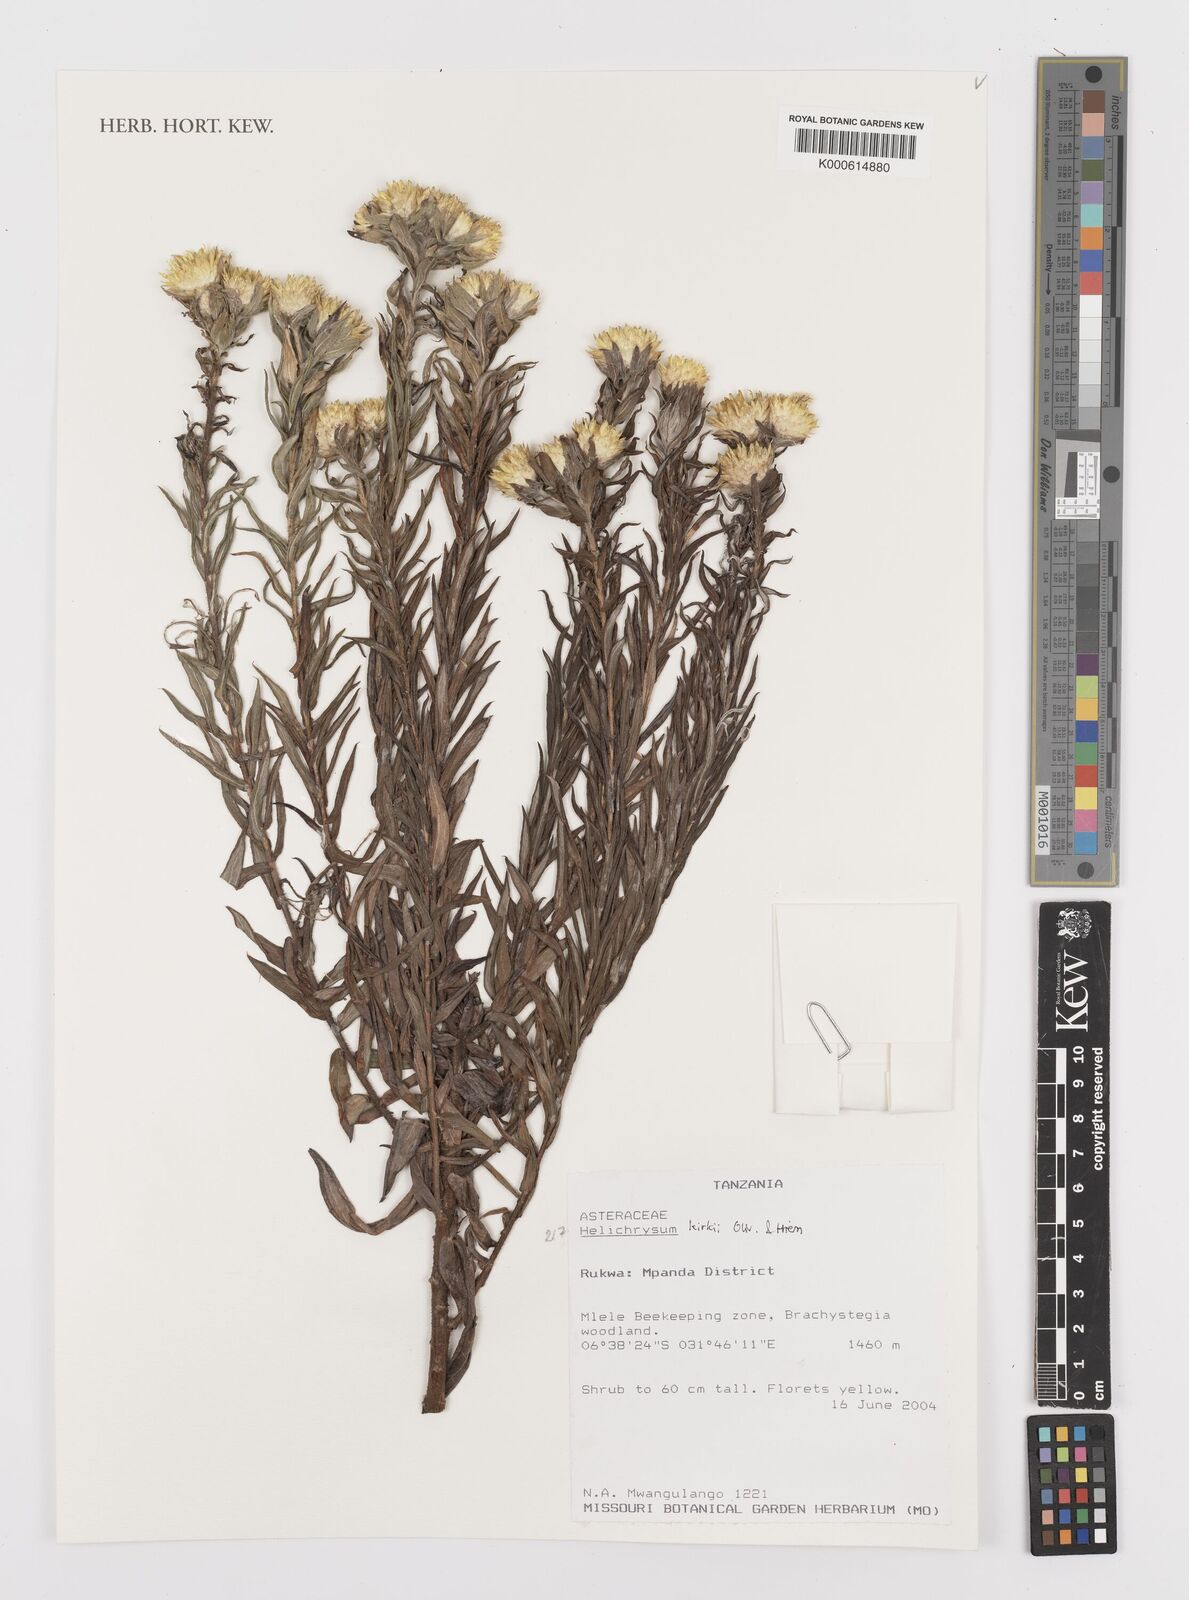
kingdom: Plantae
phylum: Tracheophyta
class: Magnoliopsida
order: Asterales
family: Asteraceae
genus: Helichrysum
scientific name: Helichrysum kirkii
